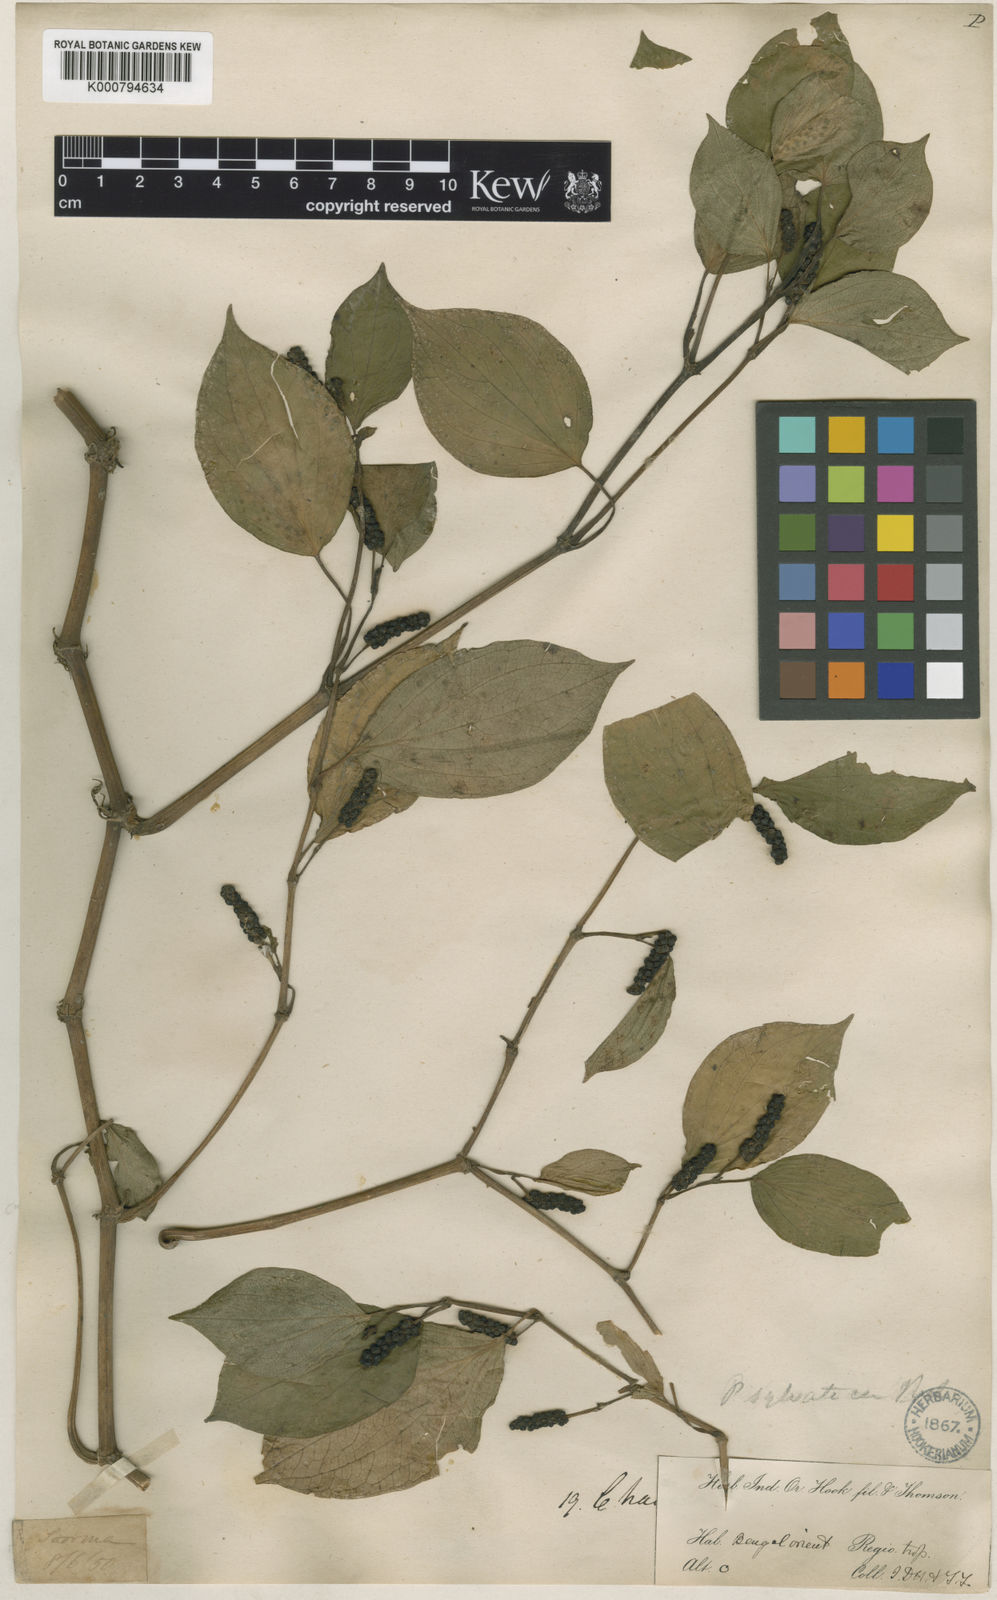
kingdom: Plantae
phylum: Tracheophyta
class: Magnoliopsida
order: Piperales
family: Piperaceae
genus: Piper
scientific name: Piper sylvaticum
